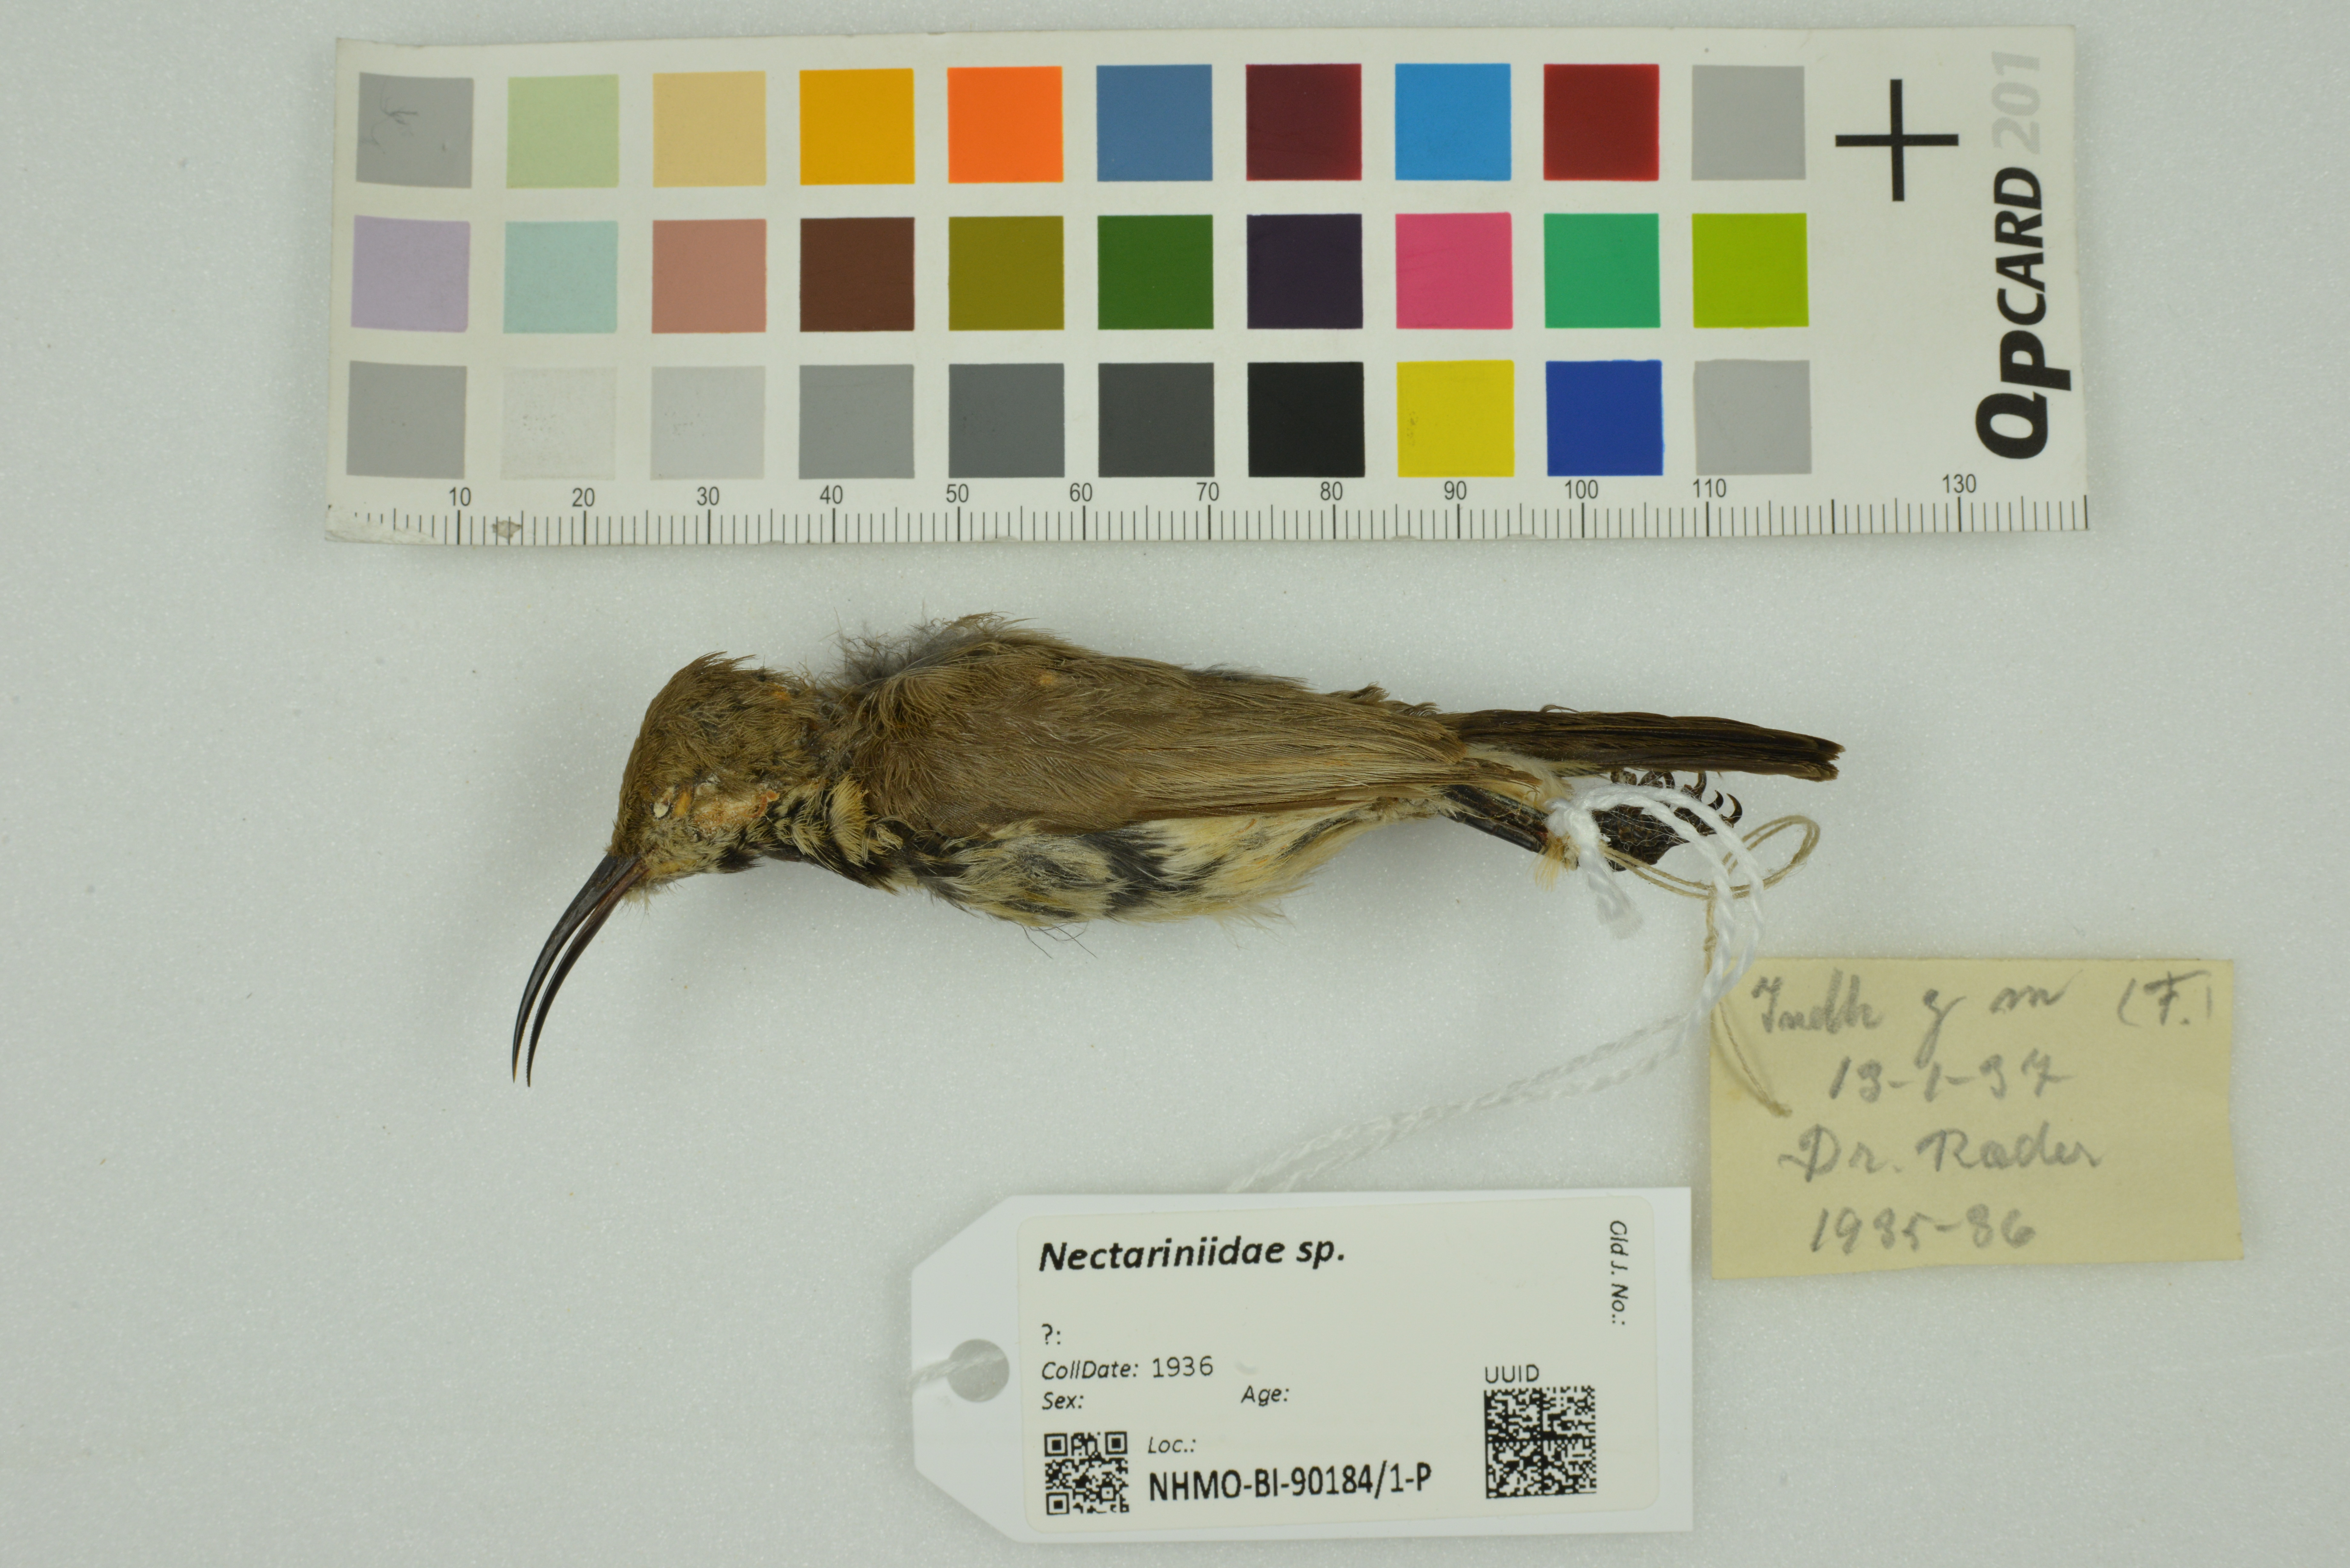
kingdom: Animalia
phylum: Chordata
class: Aves
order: Passeriformes
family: Nectariniidae
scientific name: Nectariniidae
